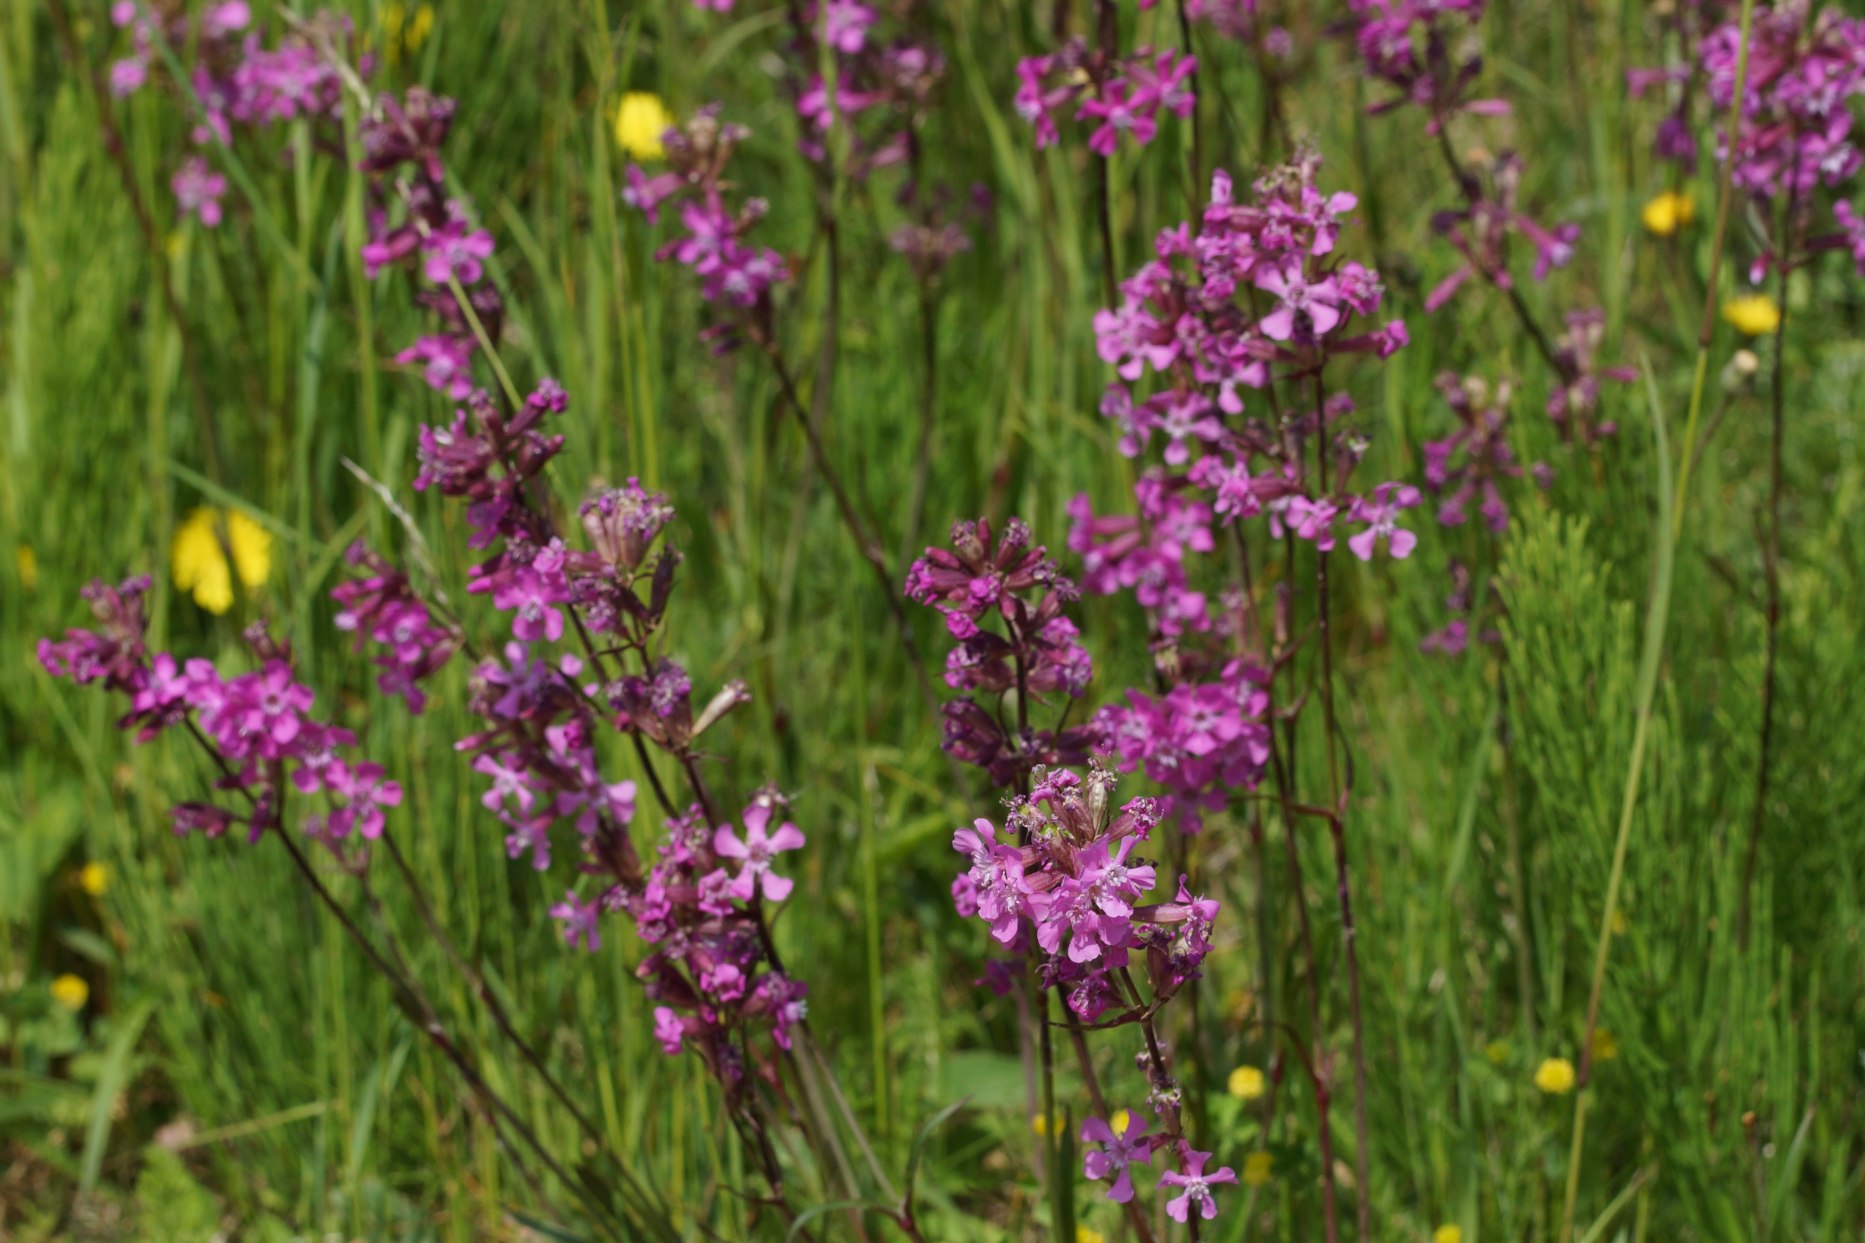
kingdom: Plantae
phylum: Tracheophyta
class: Magnoliopsida
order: Caryophyllales
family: Caryophyllaceae
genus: Viscaria
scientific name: Viscaria vulgaris
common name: Tjærenellike
